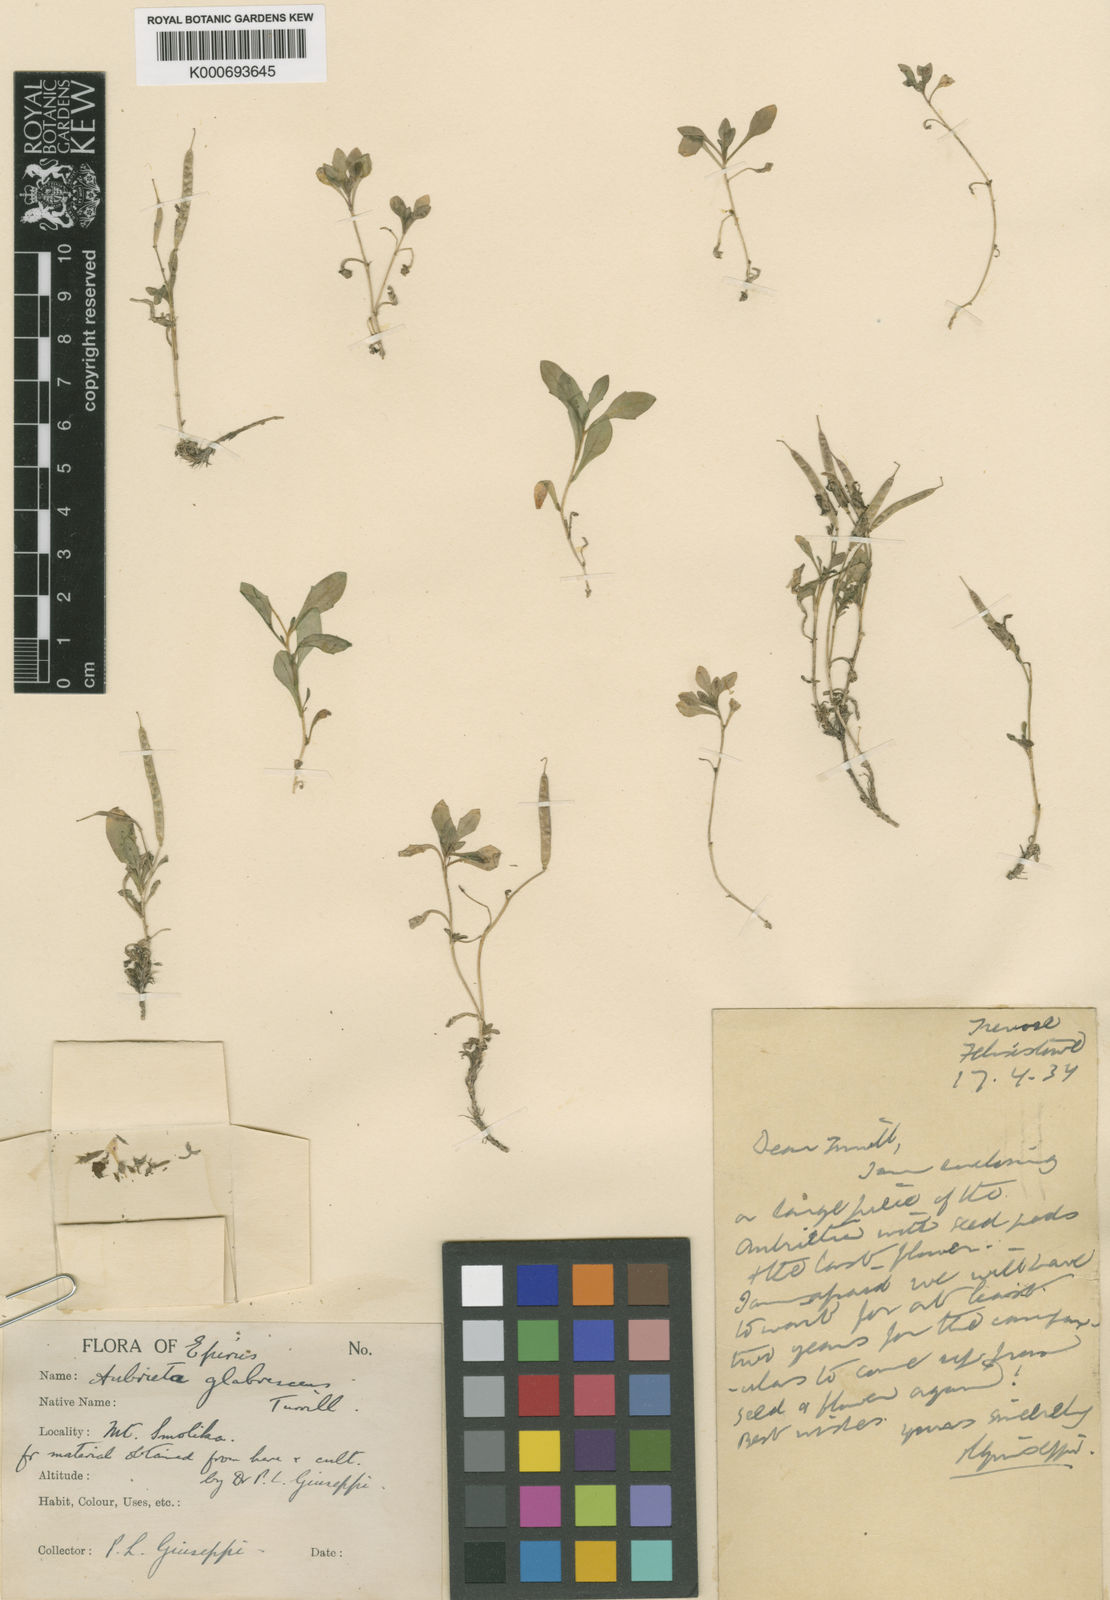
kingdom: Plantae
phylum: Tracheophyta
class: Magnoliopsida
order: Brassicales
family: Brassicaceae
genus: Aubrieta
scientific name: Aubrieta glabrescens
